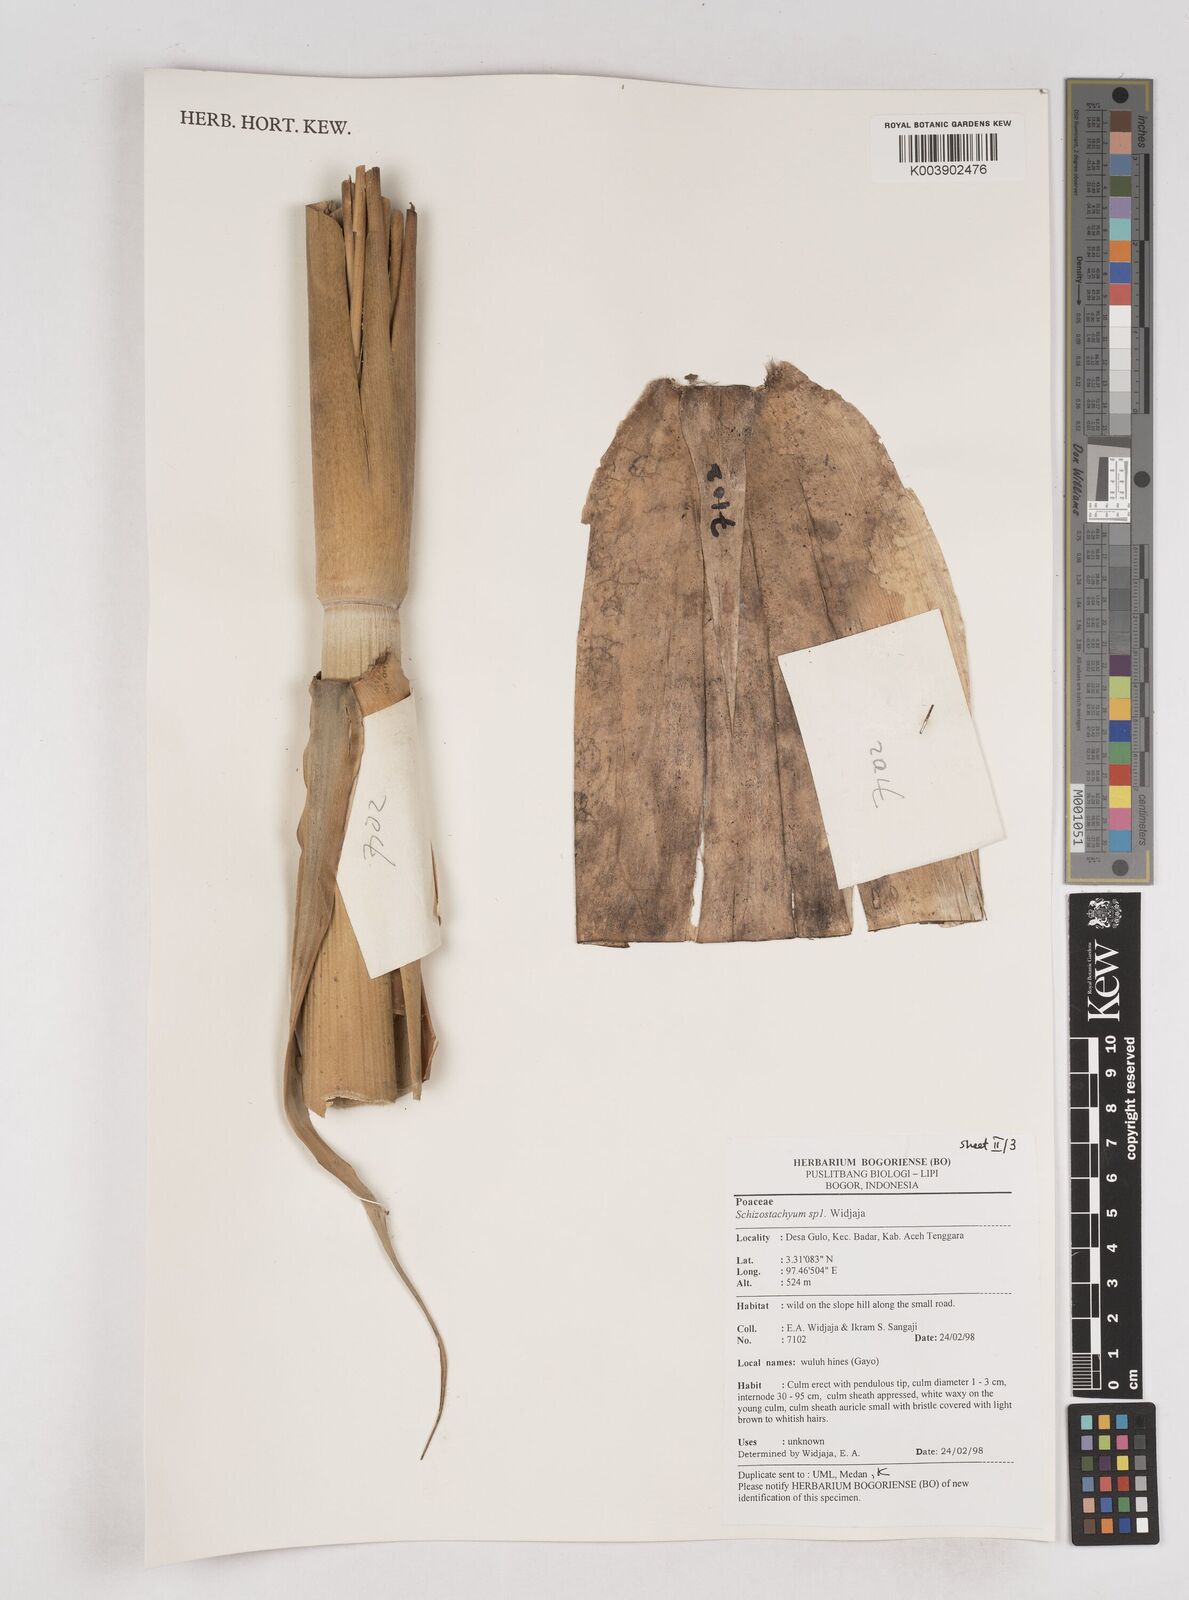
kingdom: Plantae
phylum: Tracheophyta
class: Liliopsida
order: Poales
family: Poaceae
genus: Schizostachyum
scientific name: Schizostachyum
